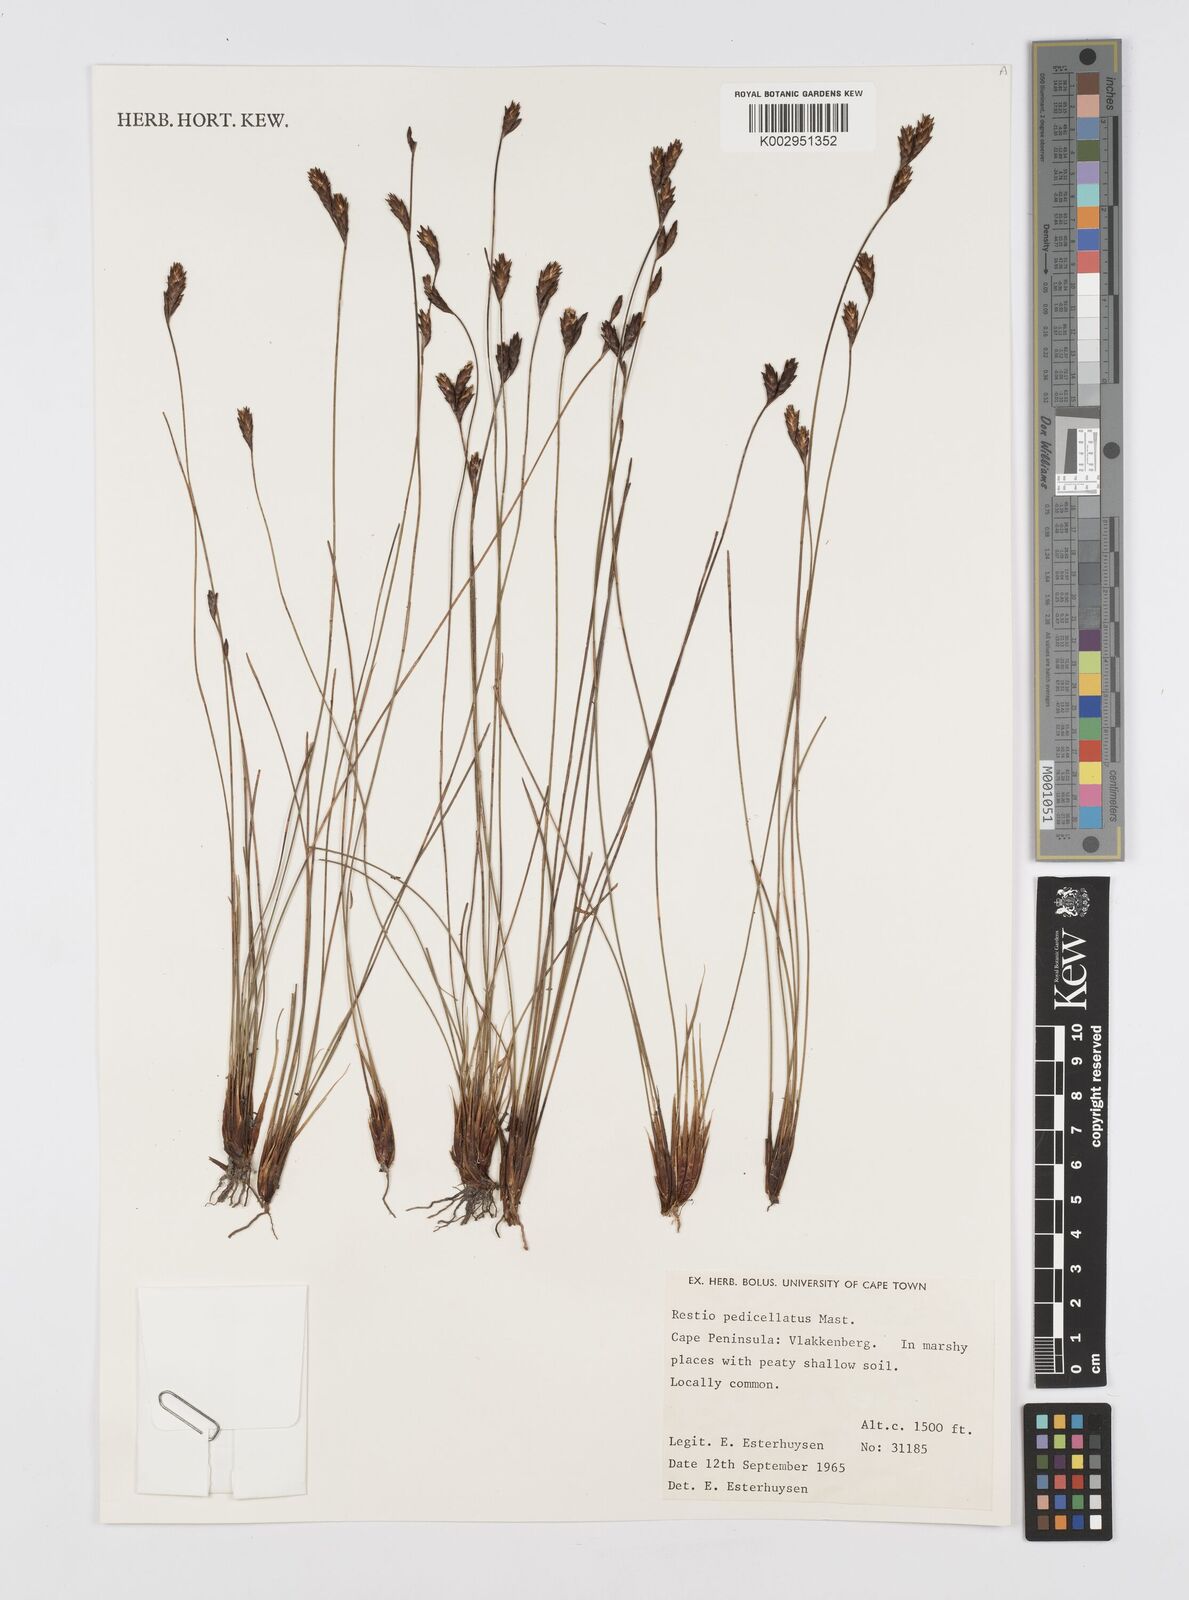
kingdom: Plantae
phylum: Tracheophyta
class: Liliopsida
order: Poales
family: Restionaceae
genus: Restio
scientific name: Restio pedicellatus
